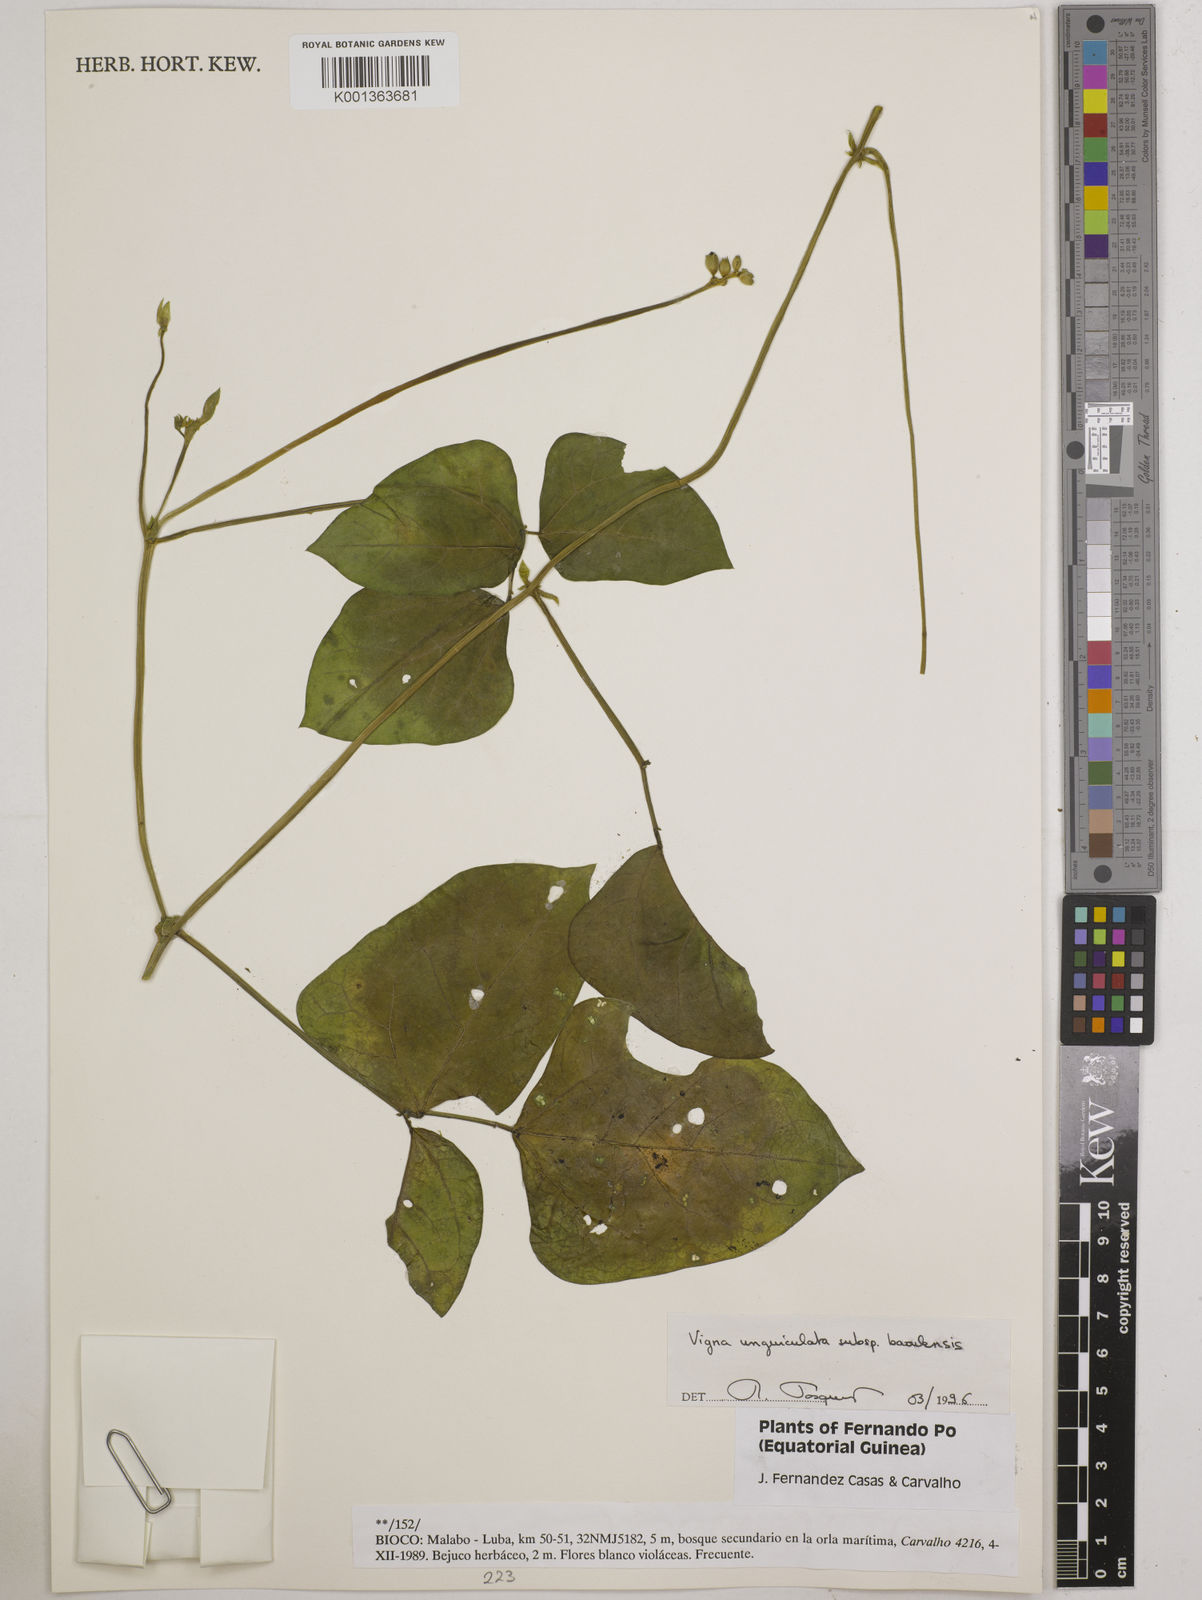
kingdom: Plantae
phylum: Tracheophyta
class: Magnoliopsida
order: Fabales
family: Fabaceae
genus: Vigna
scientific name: Vigna unguiculata
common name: Cowpea
